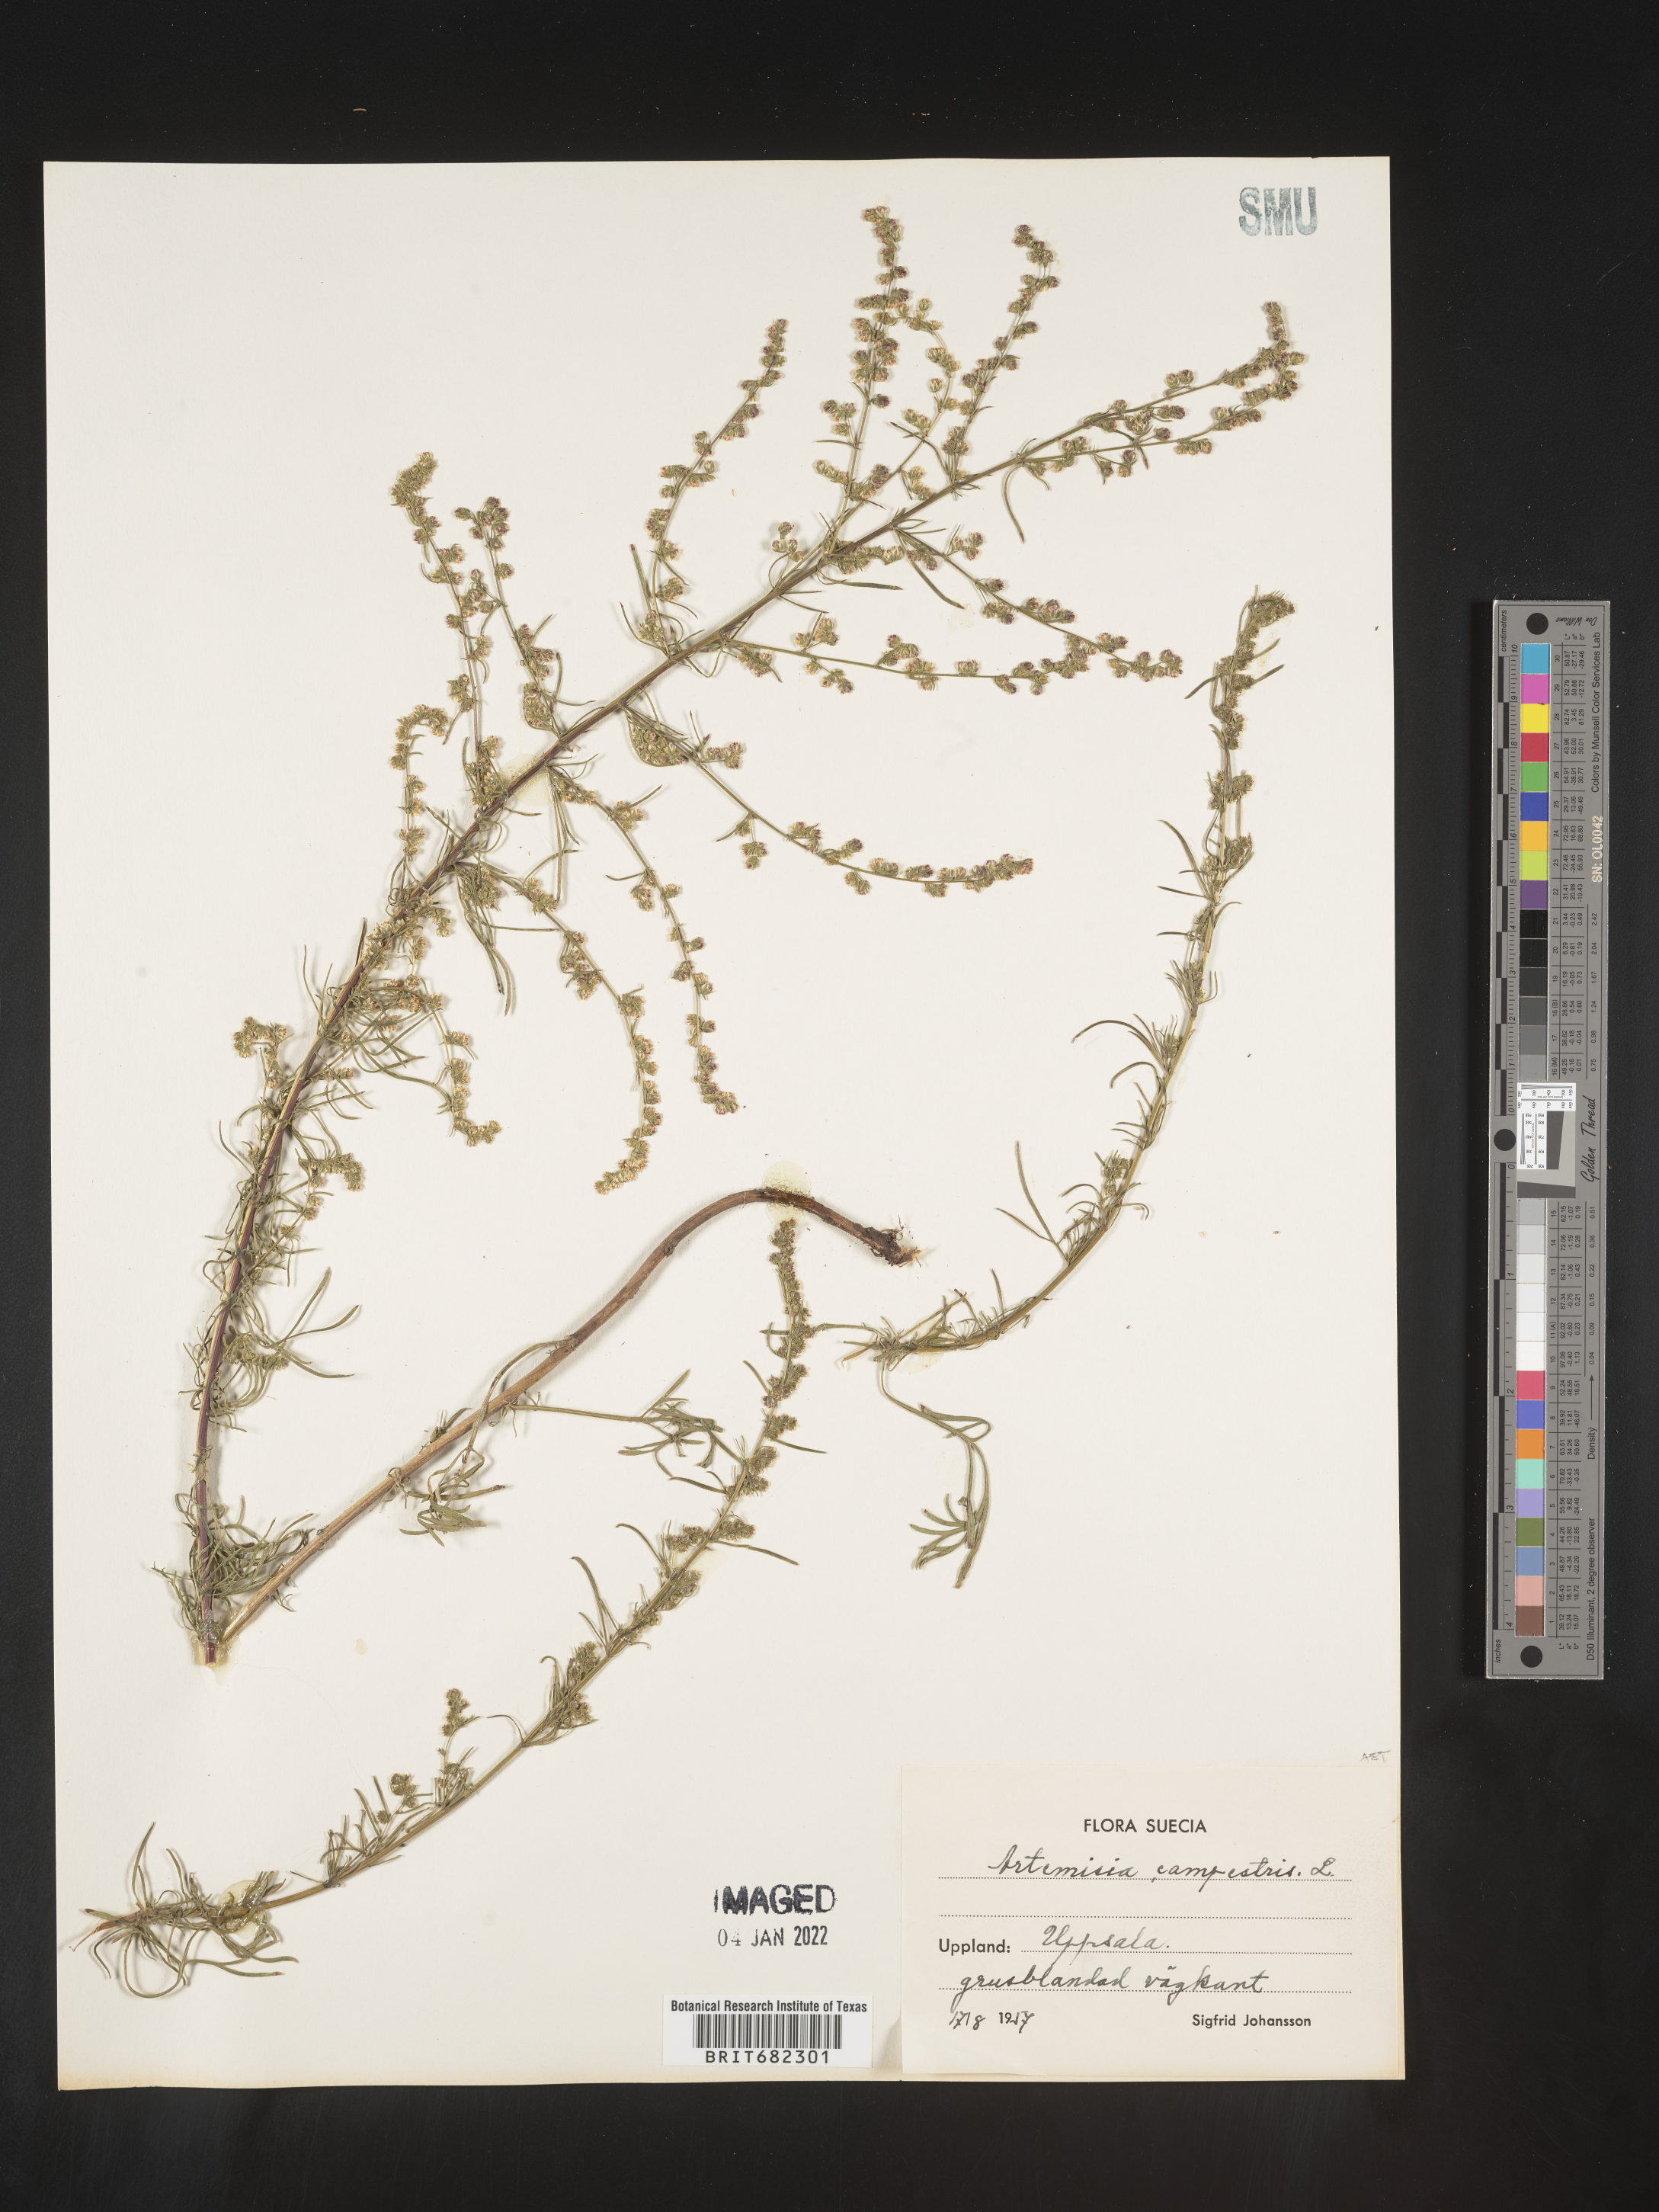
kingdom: Plantae
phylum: Tracheophyta
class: Magnoliopsida
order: Asterales
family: Asteraceae
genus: Artemisia
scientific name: Artemisia campestris
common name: Field wormwood
